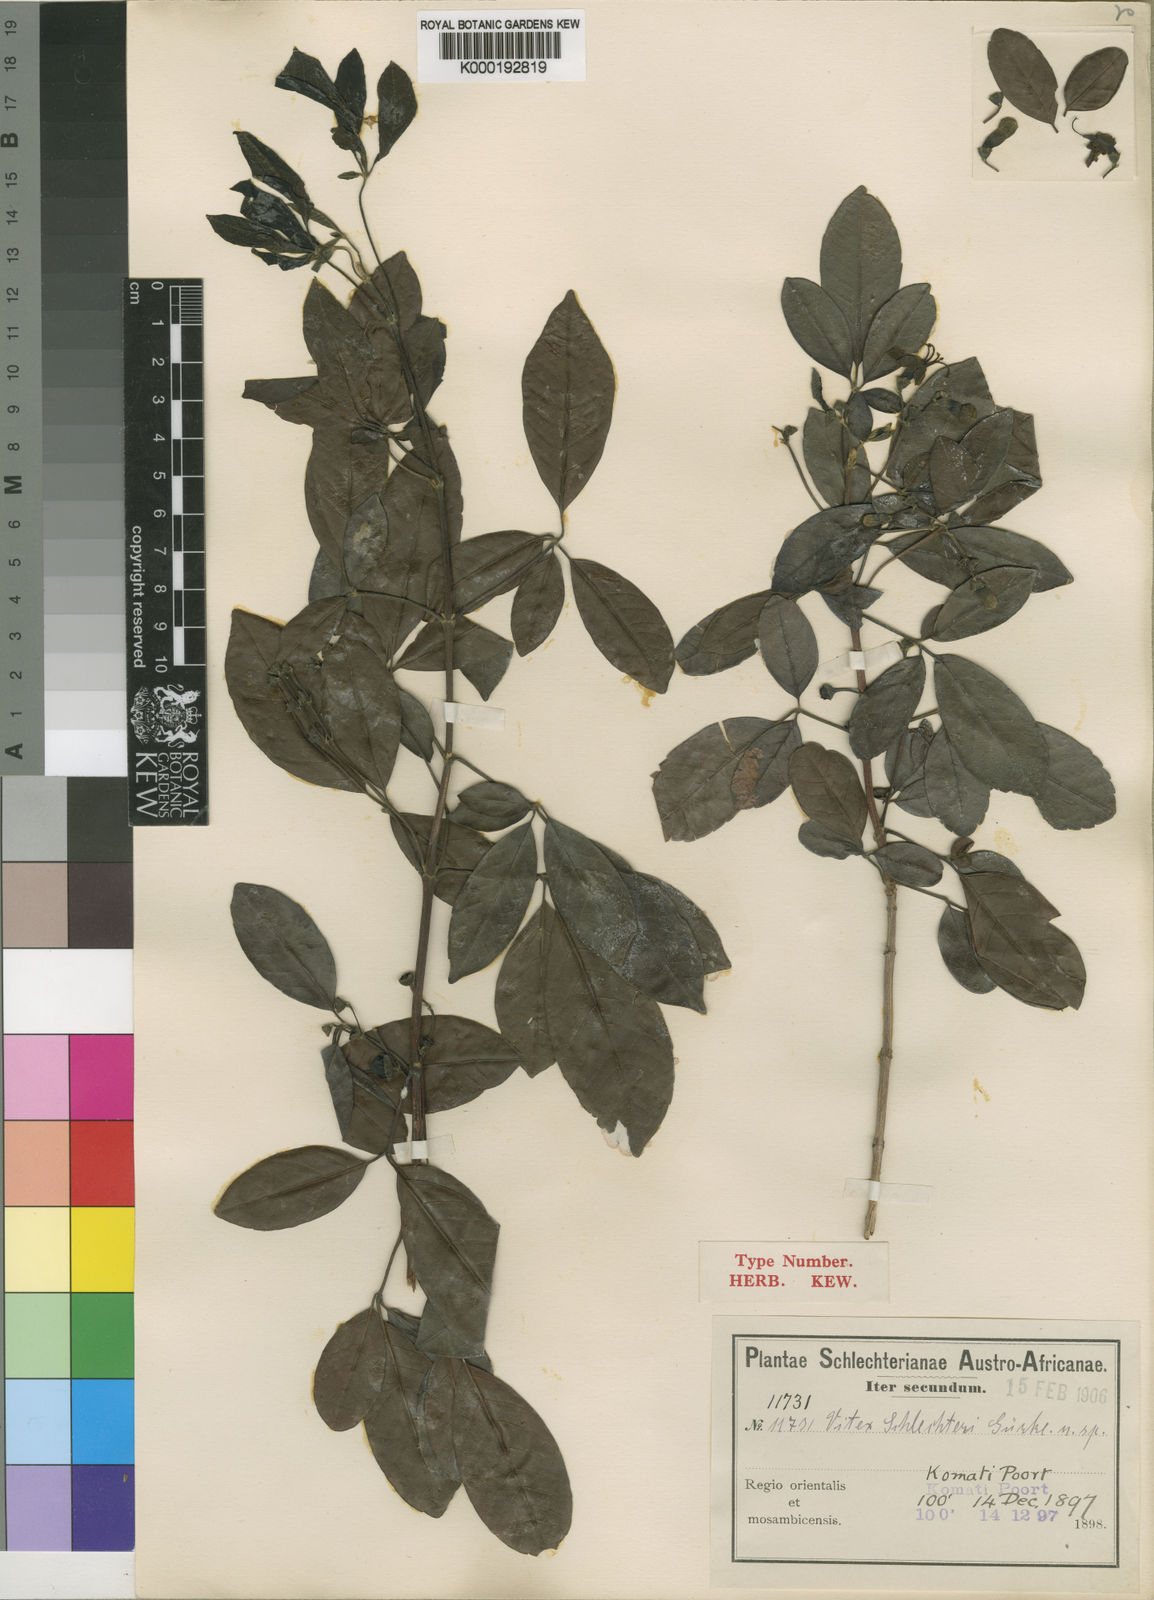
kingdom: Plantae
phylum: Tracheophyta
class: Magnoliopsida
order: Lamiales
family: Lamiaceae
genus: Vitex
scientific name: Vitex
